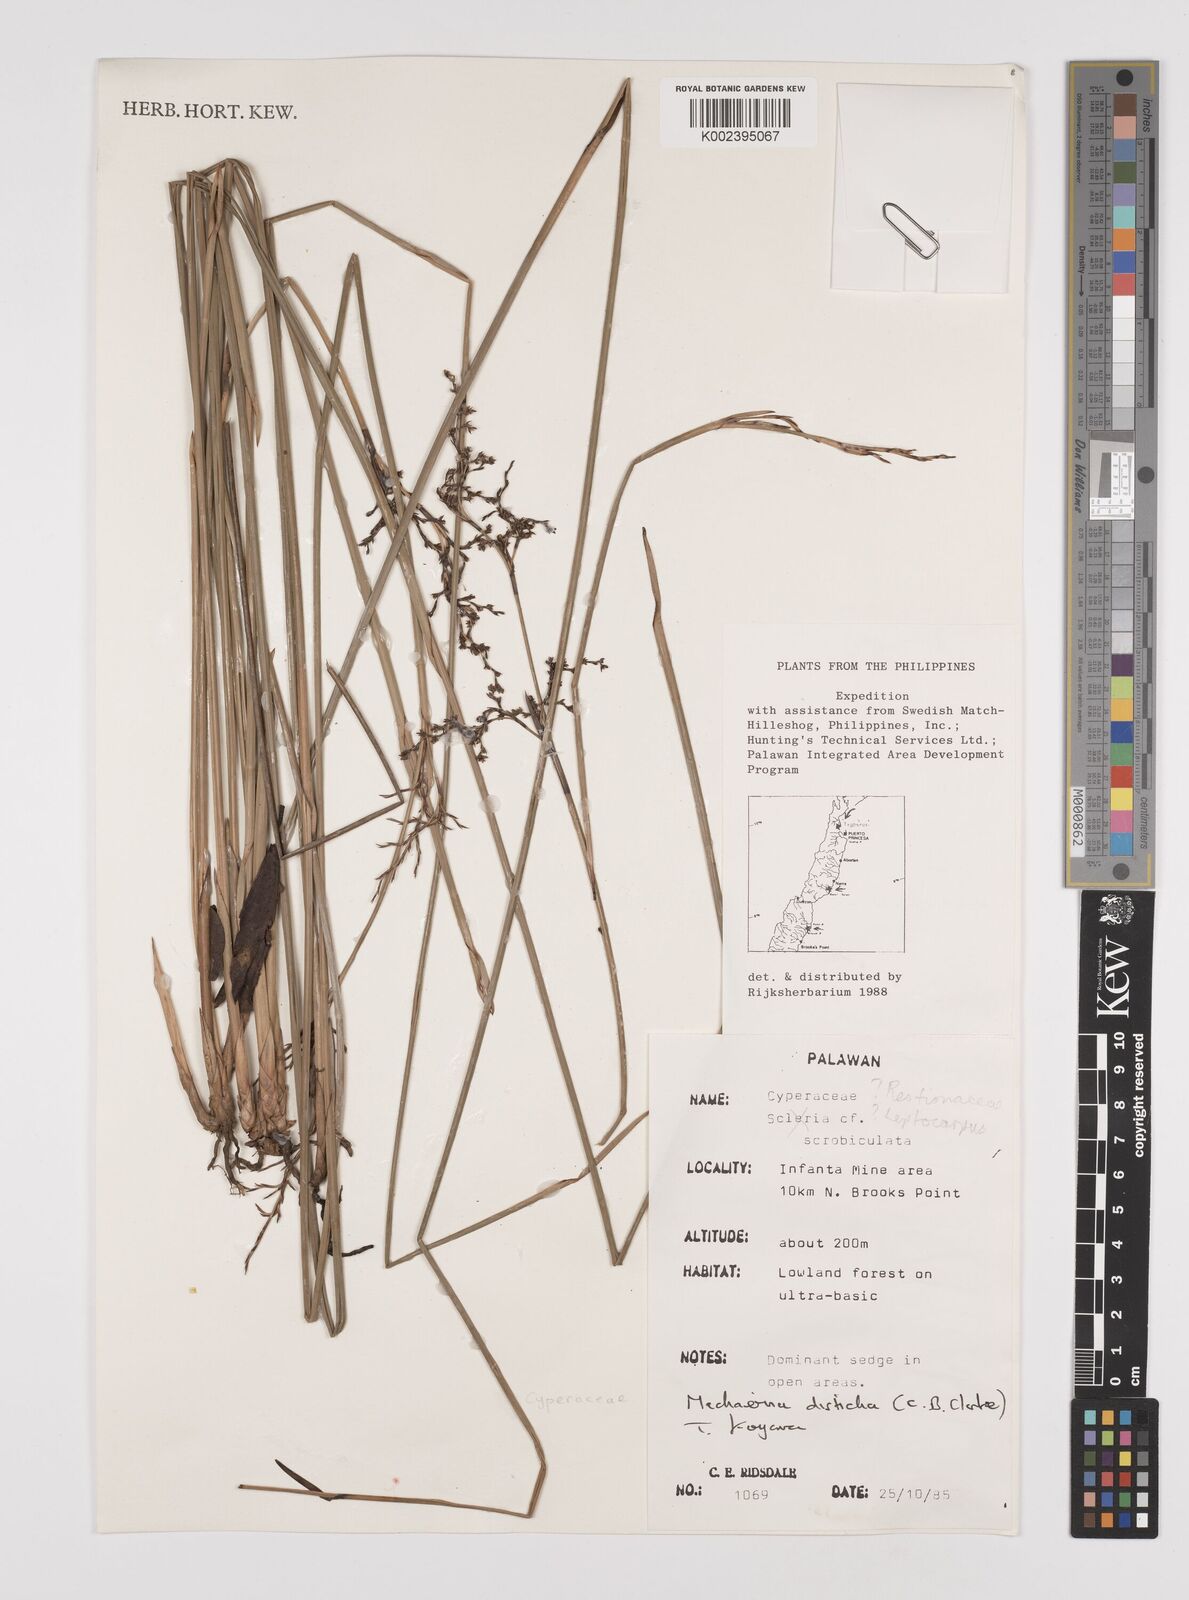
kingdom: Plantae
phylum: Tracheophyta
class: Liliopsida
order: Poales
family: Cyperaceae
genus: Machaerina
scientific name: Machaerina disticha
